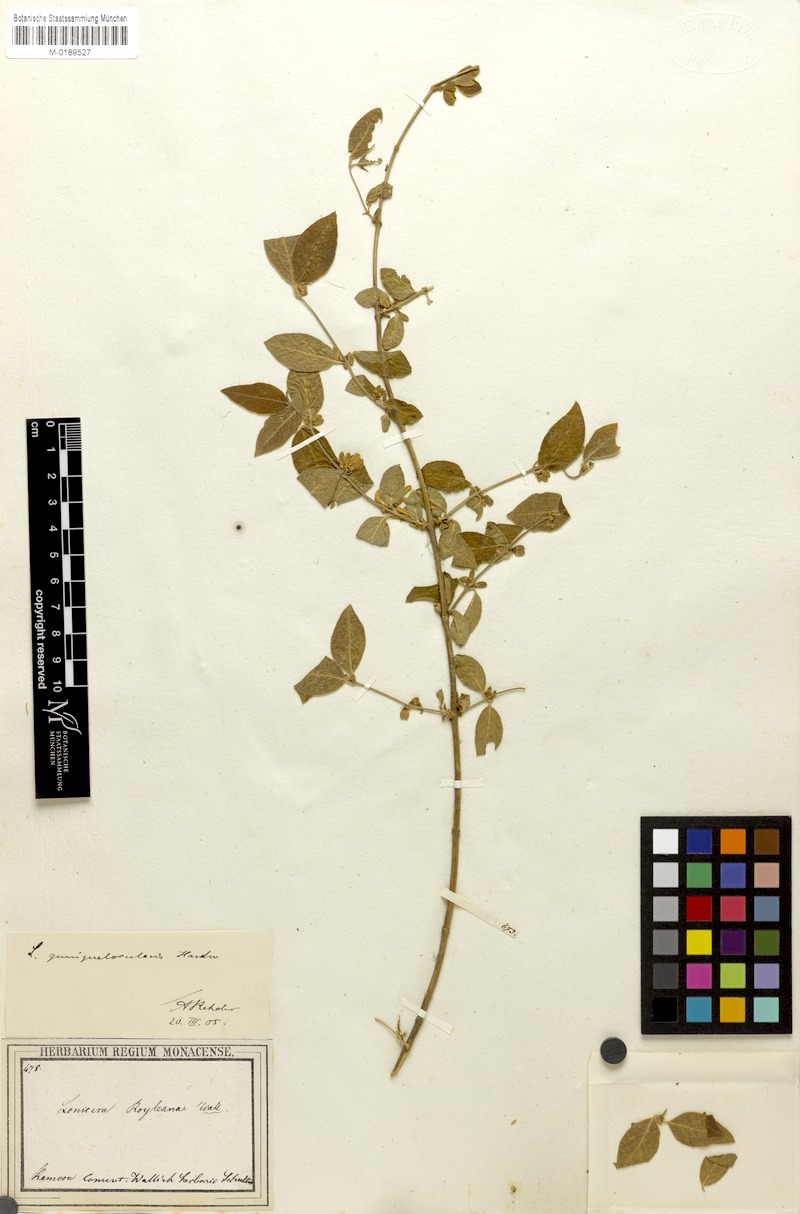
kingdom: Plantae
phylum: Tracheophyta
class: Magnoliopsida
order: Dipsacales
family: Caprifoliaceae
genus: Lonicera
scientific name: Lonicera quinquelocularis
